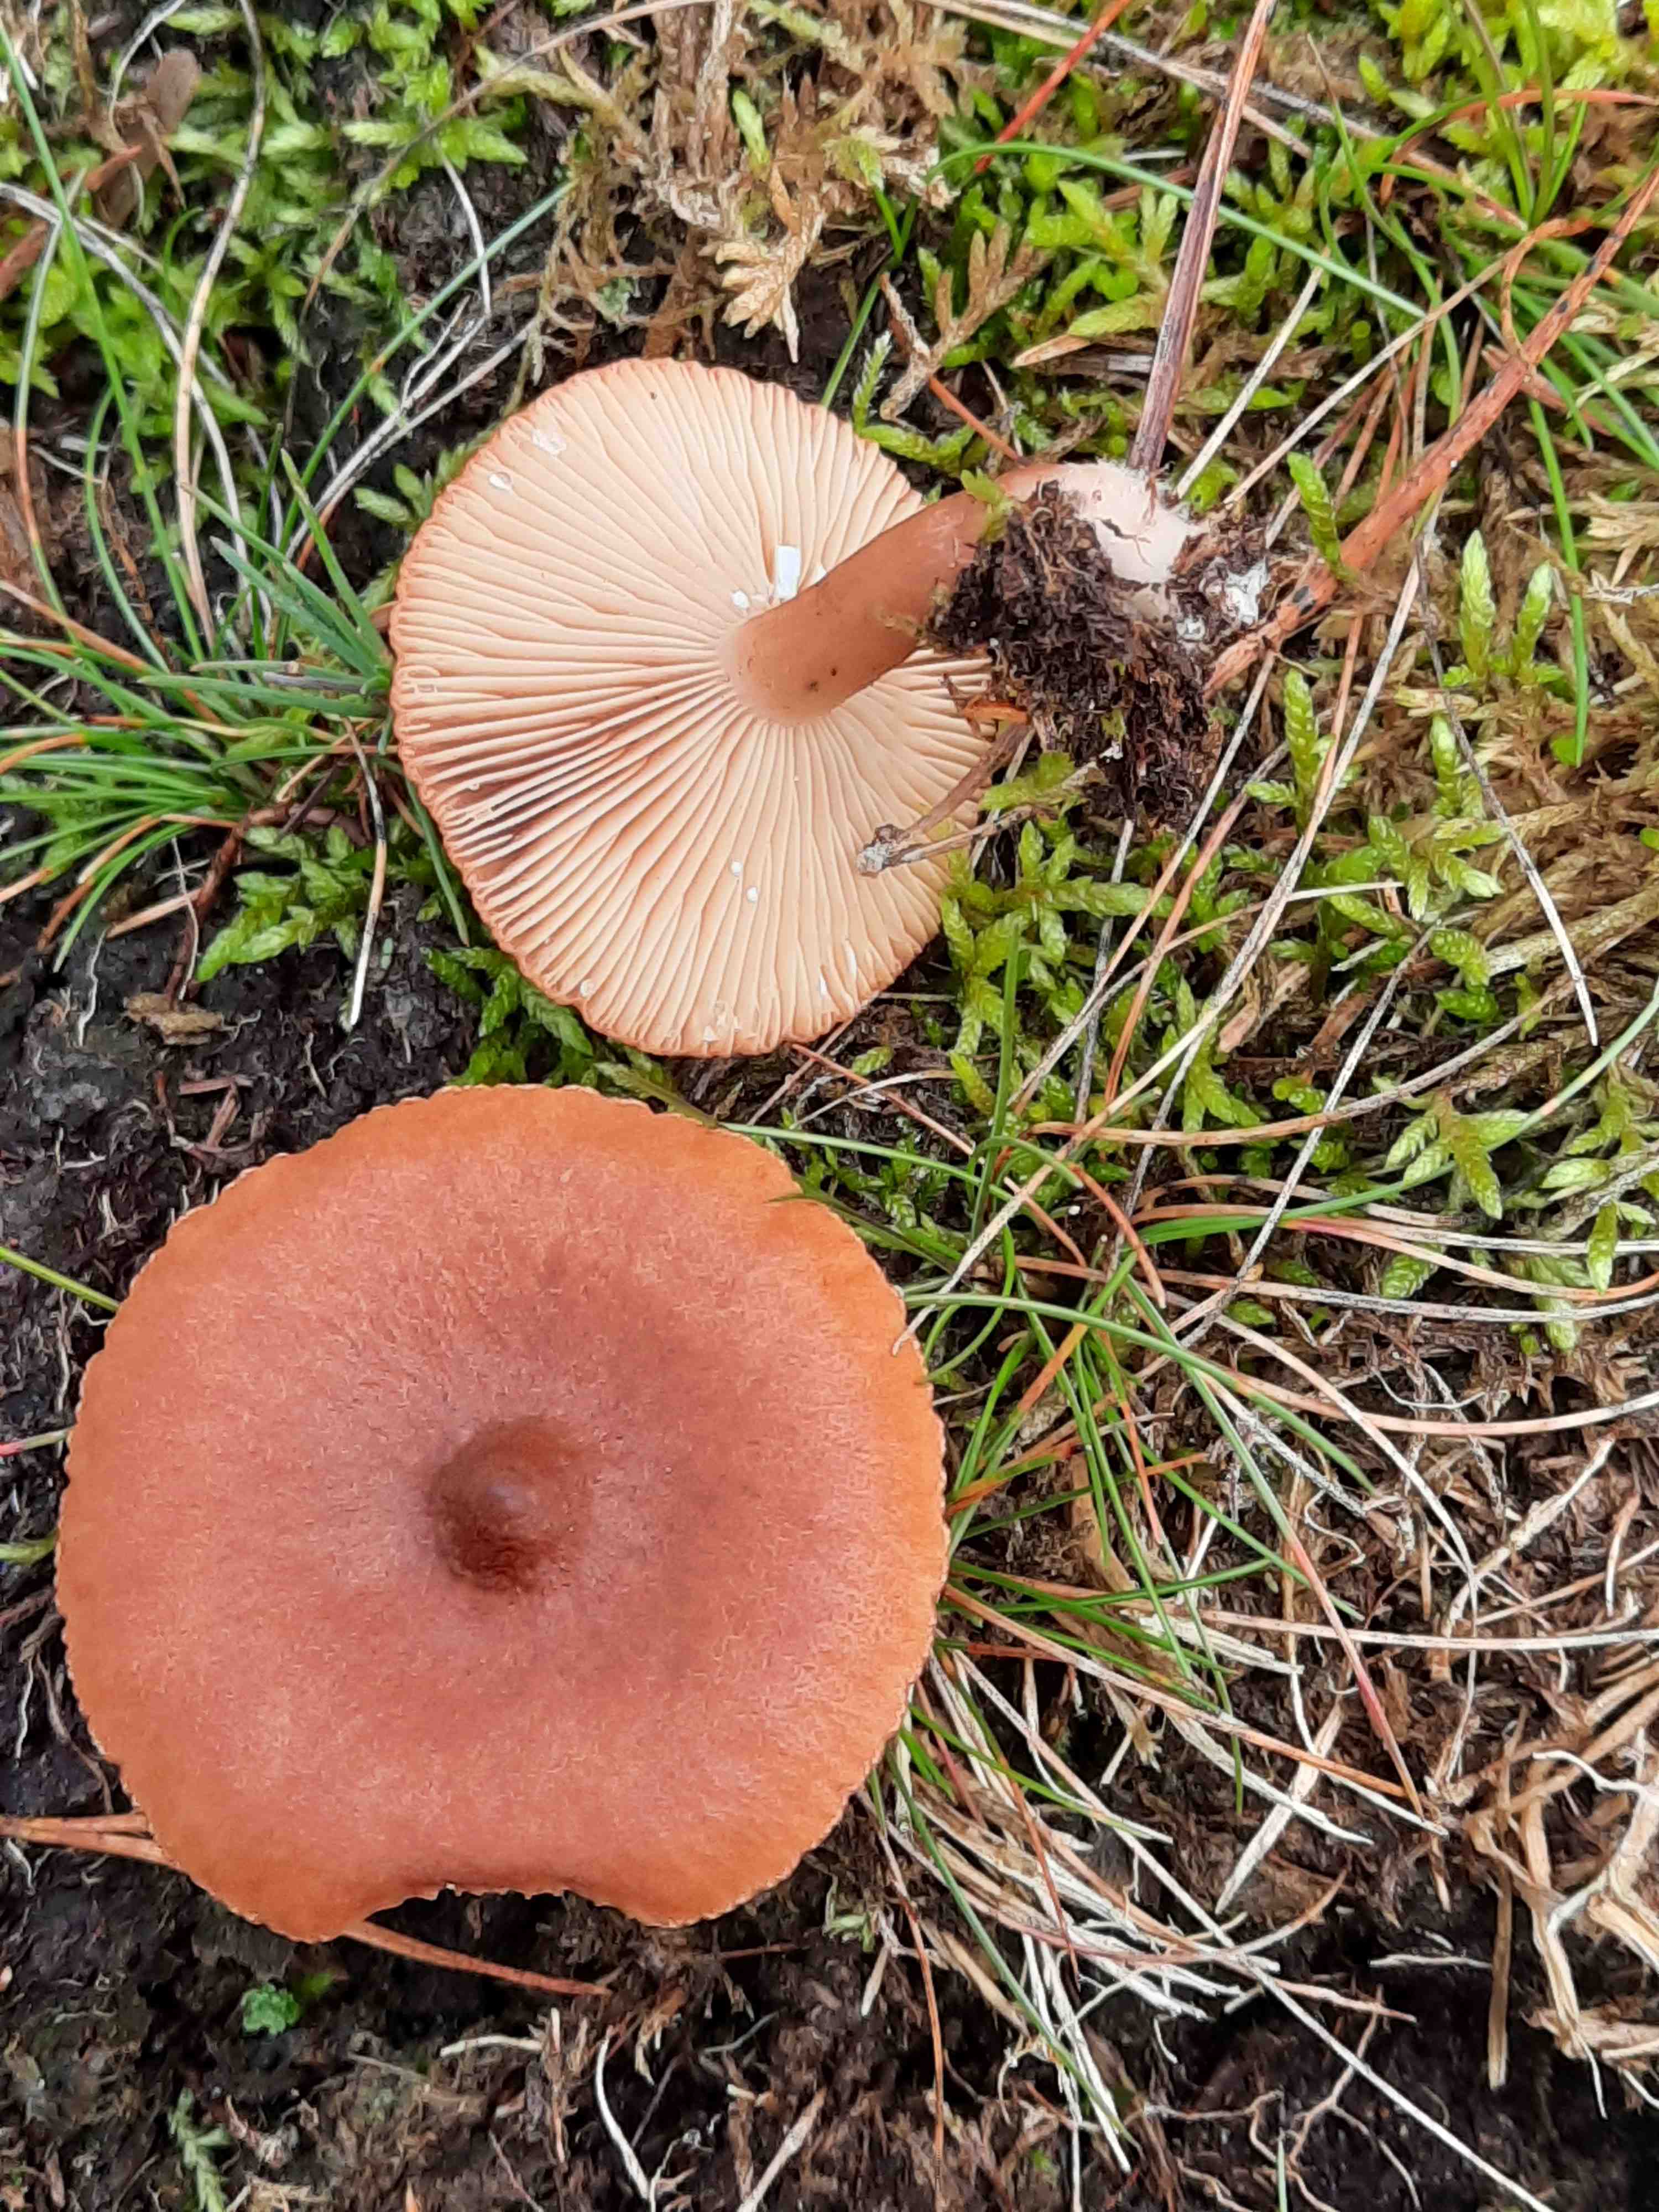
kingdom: Fungi
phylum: Basidiomycota
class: Agaricomycetes
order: Russulales
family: Russulaceae
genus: Lactarius
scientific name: Lactarius rufus
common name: rødbrun mælkehat
